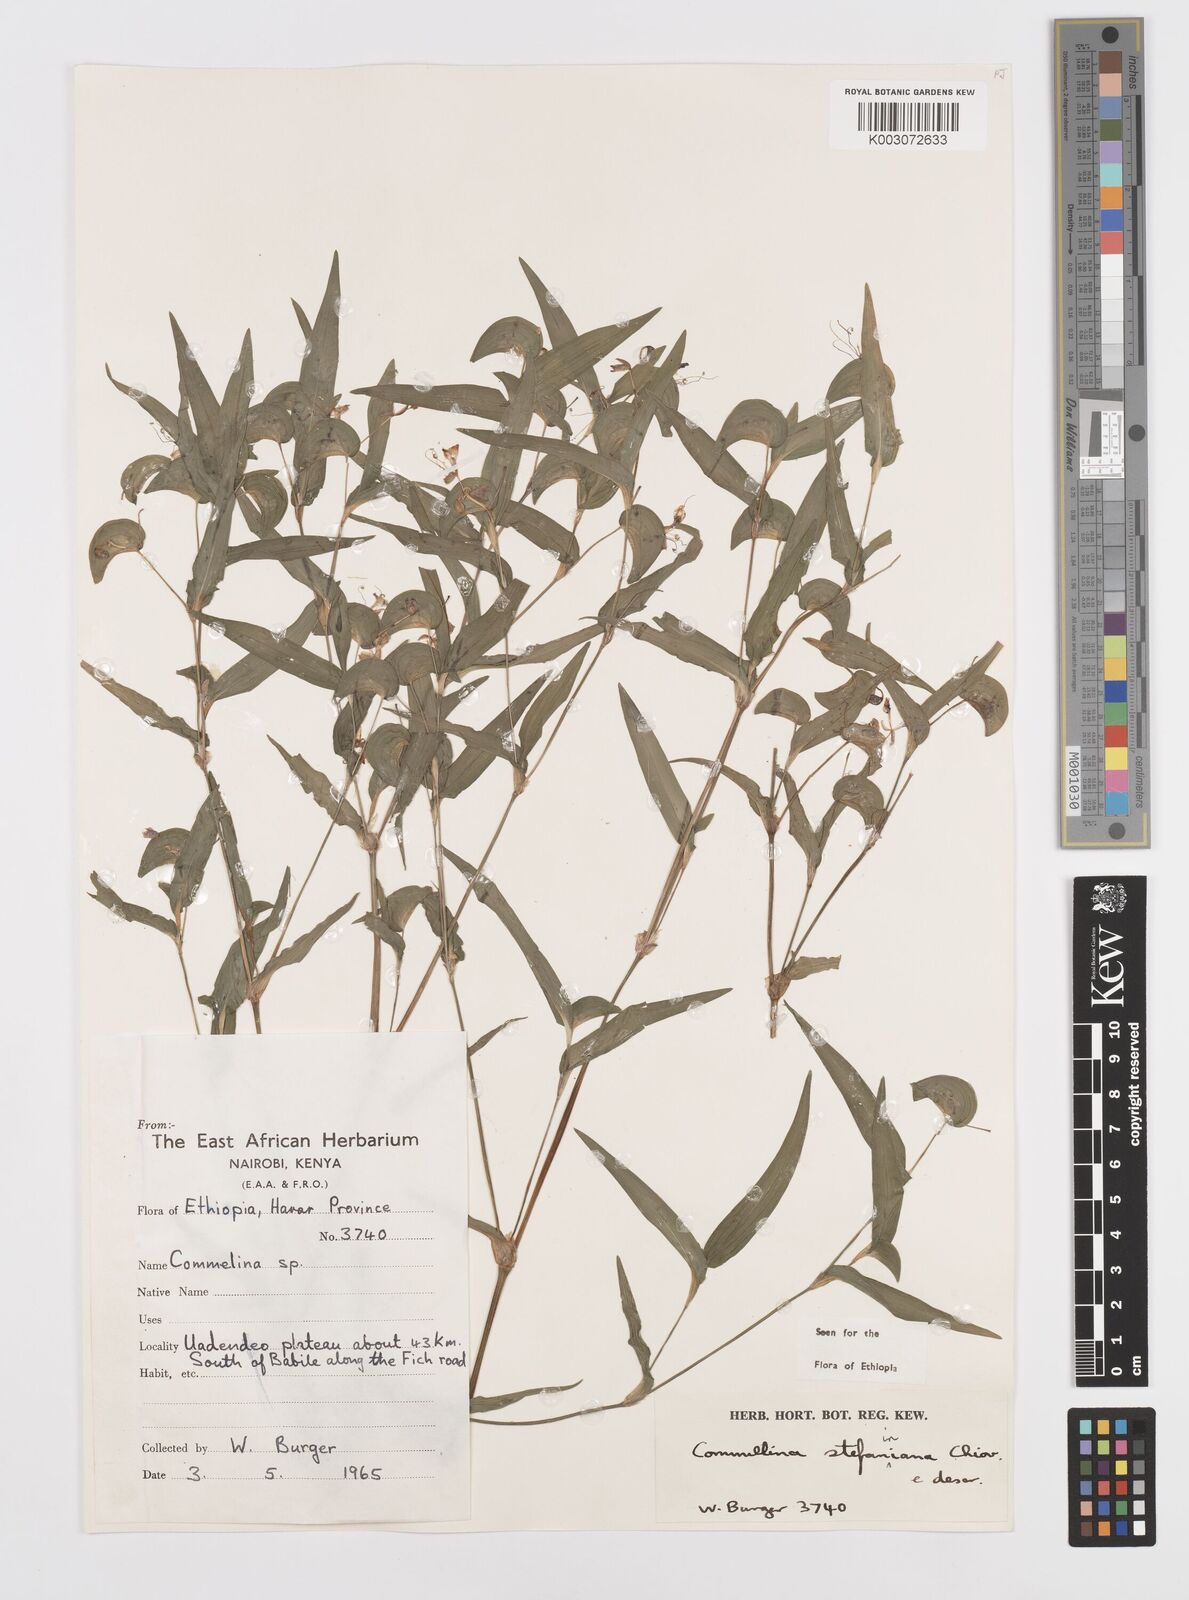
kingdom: Plantae
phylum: Tracheophyta
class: Liliopsida
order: Commelinales
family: Commelinaceae
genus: Commelina
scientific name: Commelina stefaniniana
